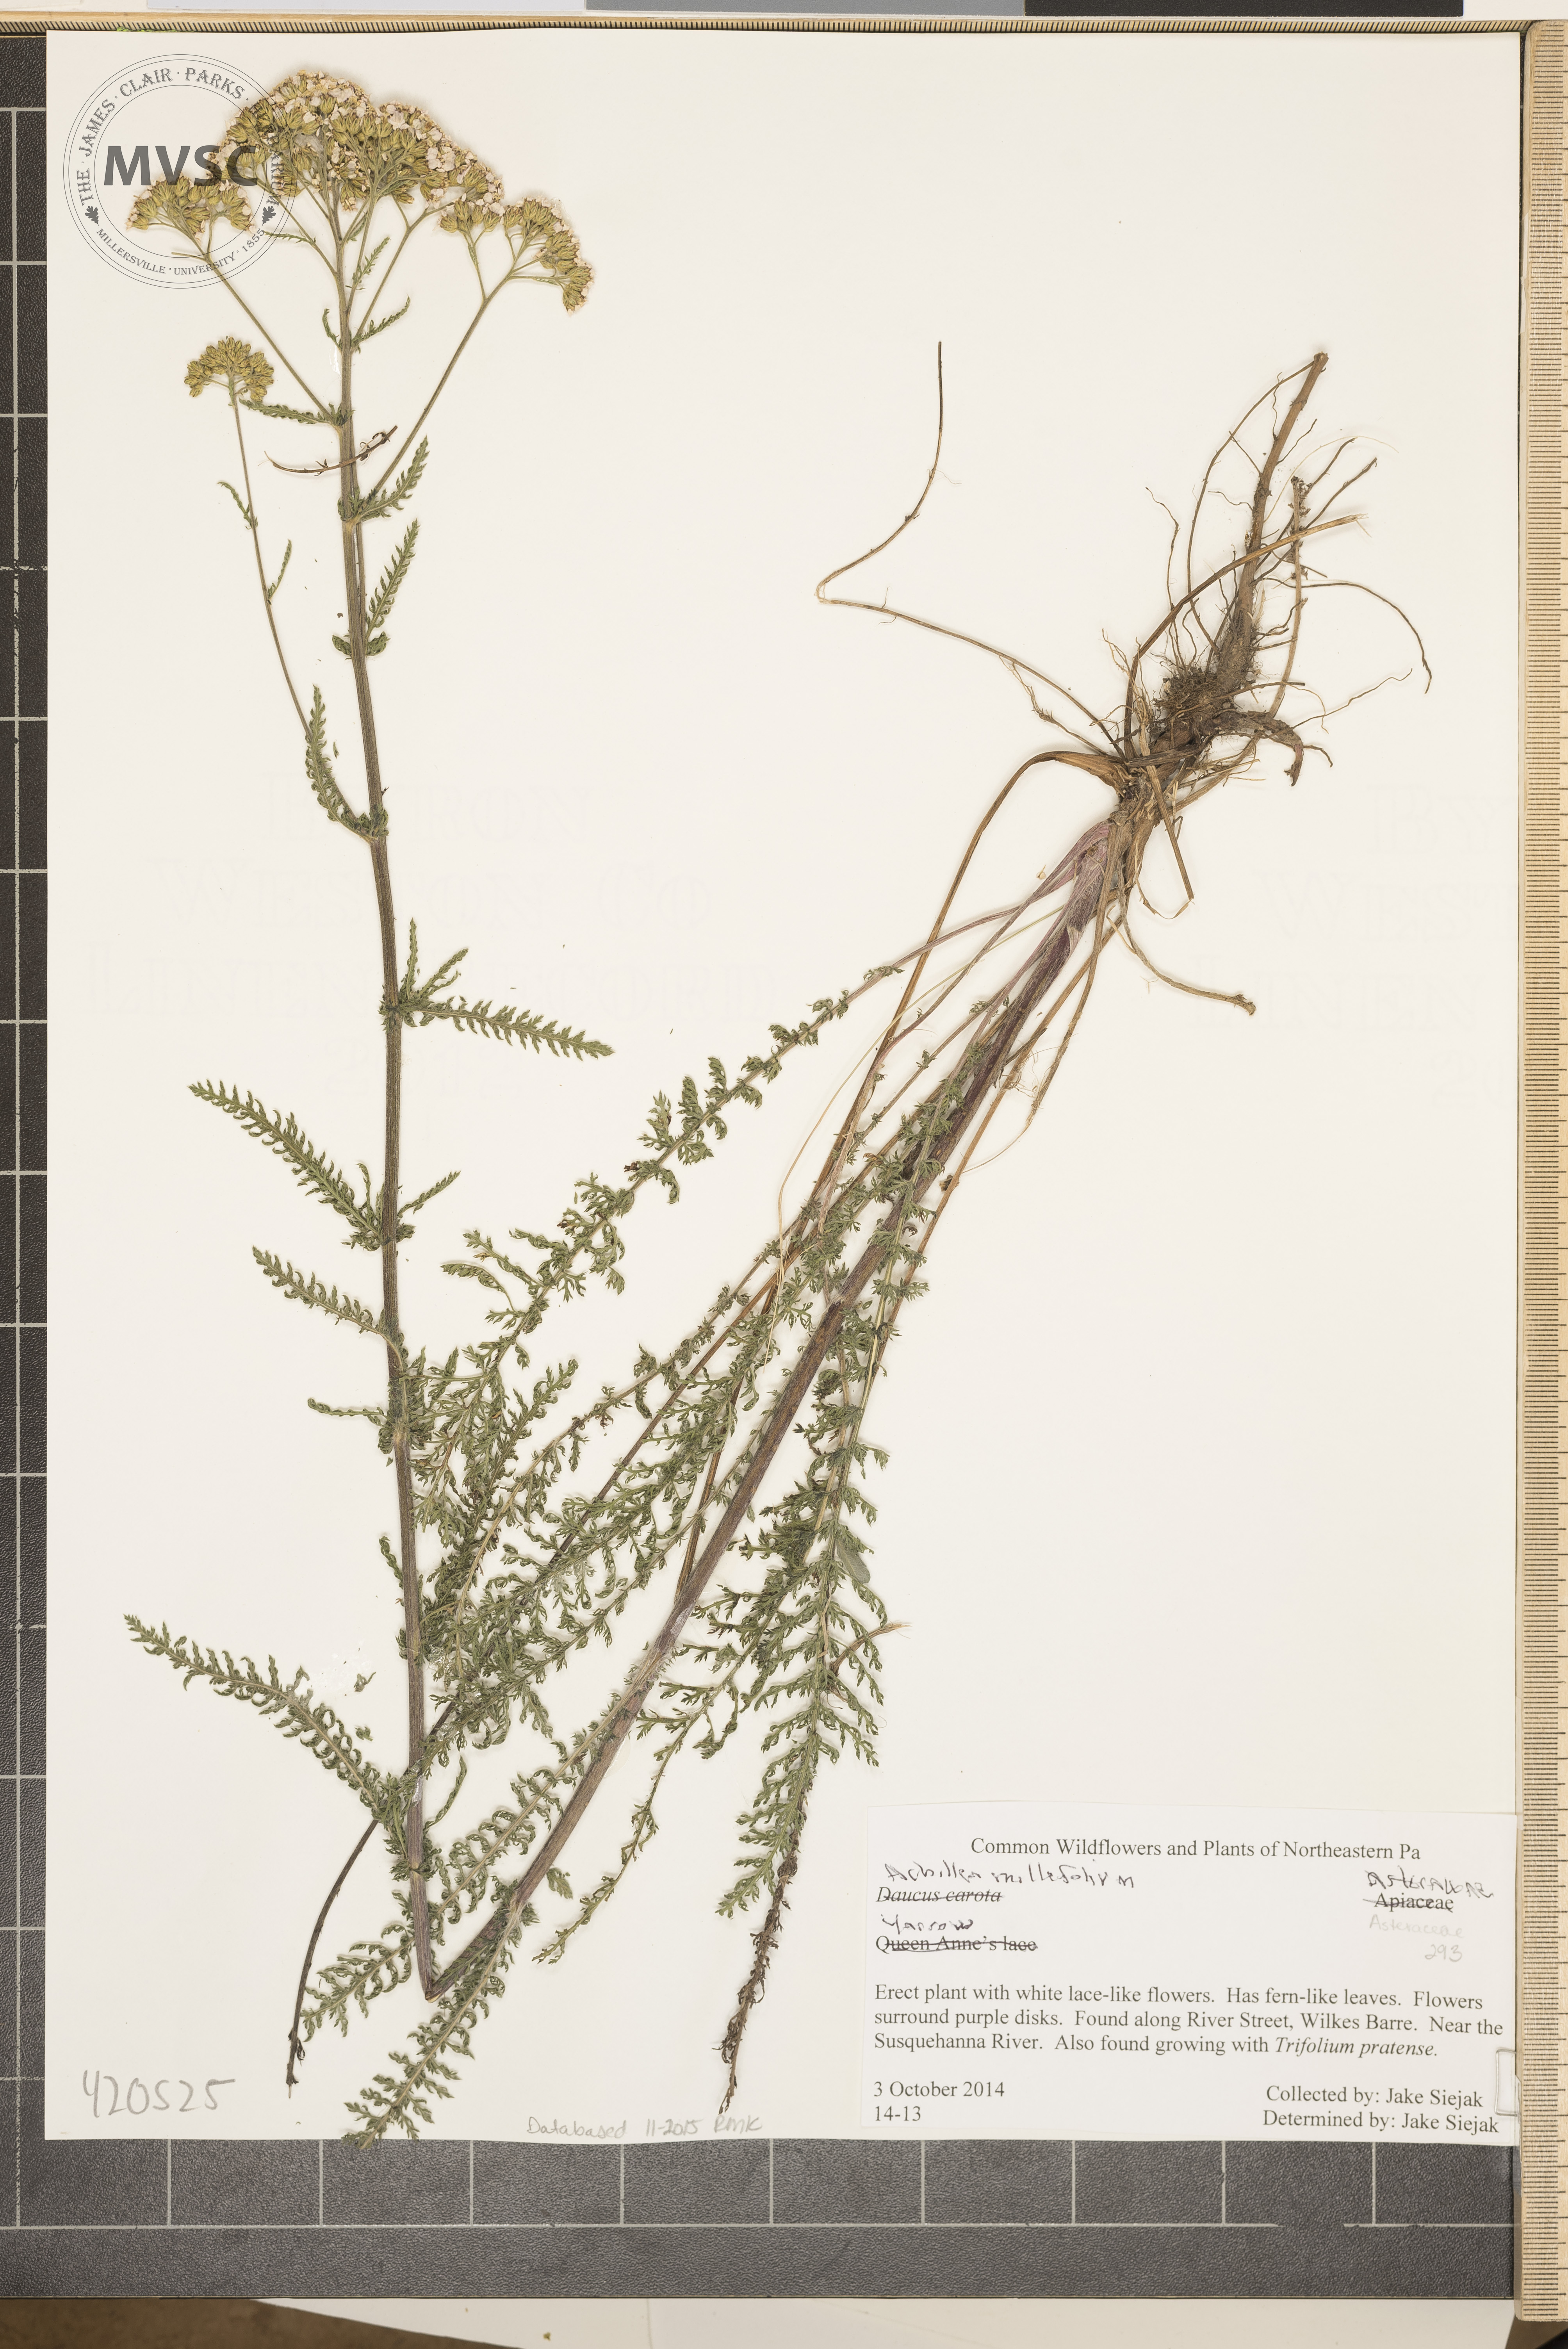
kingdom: Plantae
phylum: Tracheophyta
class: Magnoliopsida
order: Asterales
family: Asteraceae
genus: Achillea
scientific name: Achillea millefolium
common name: yarrow
